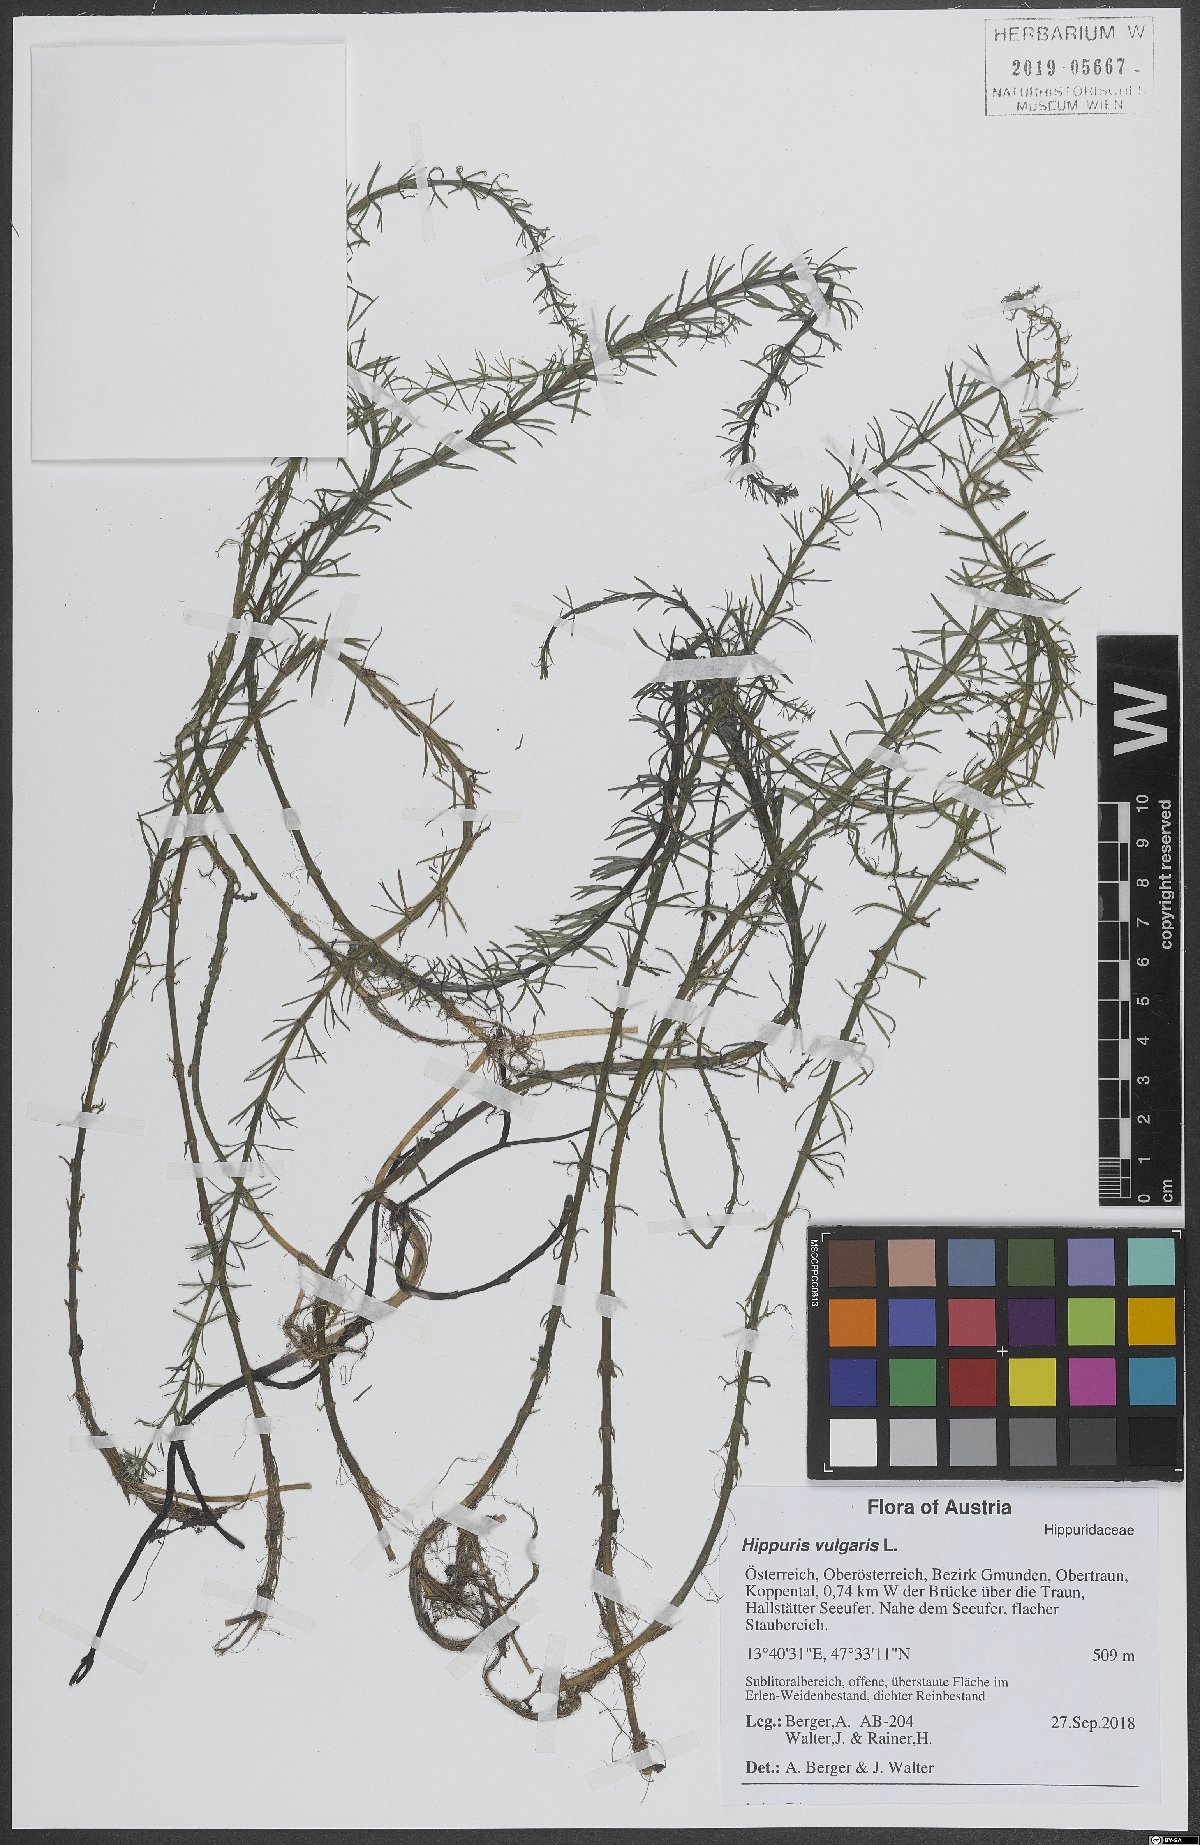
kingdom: Plantae
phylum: Tracheophyta
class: Magnoliopsida
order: Lamiales
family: Plantaginaceae
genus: Hippuris
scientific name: Hippuris vulgaris
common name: Mare's-tail
